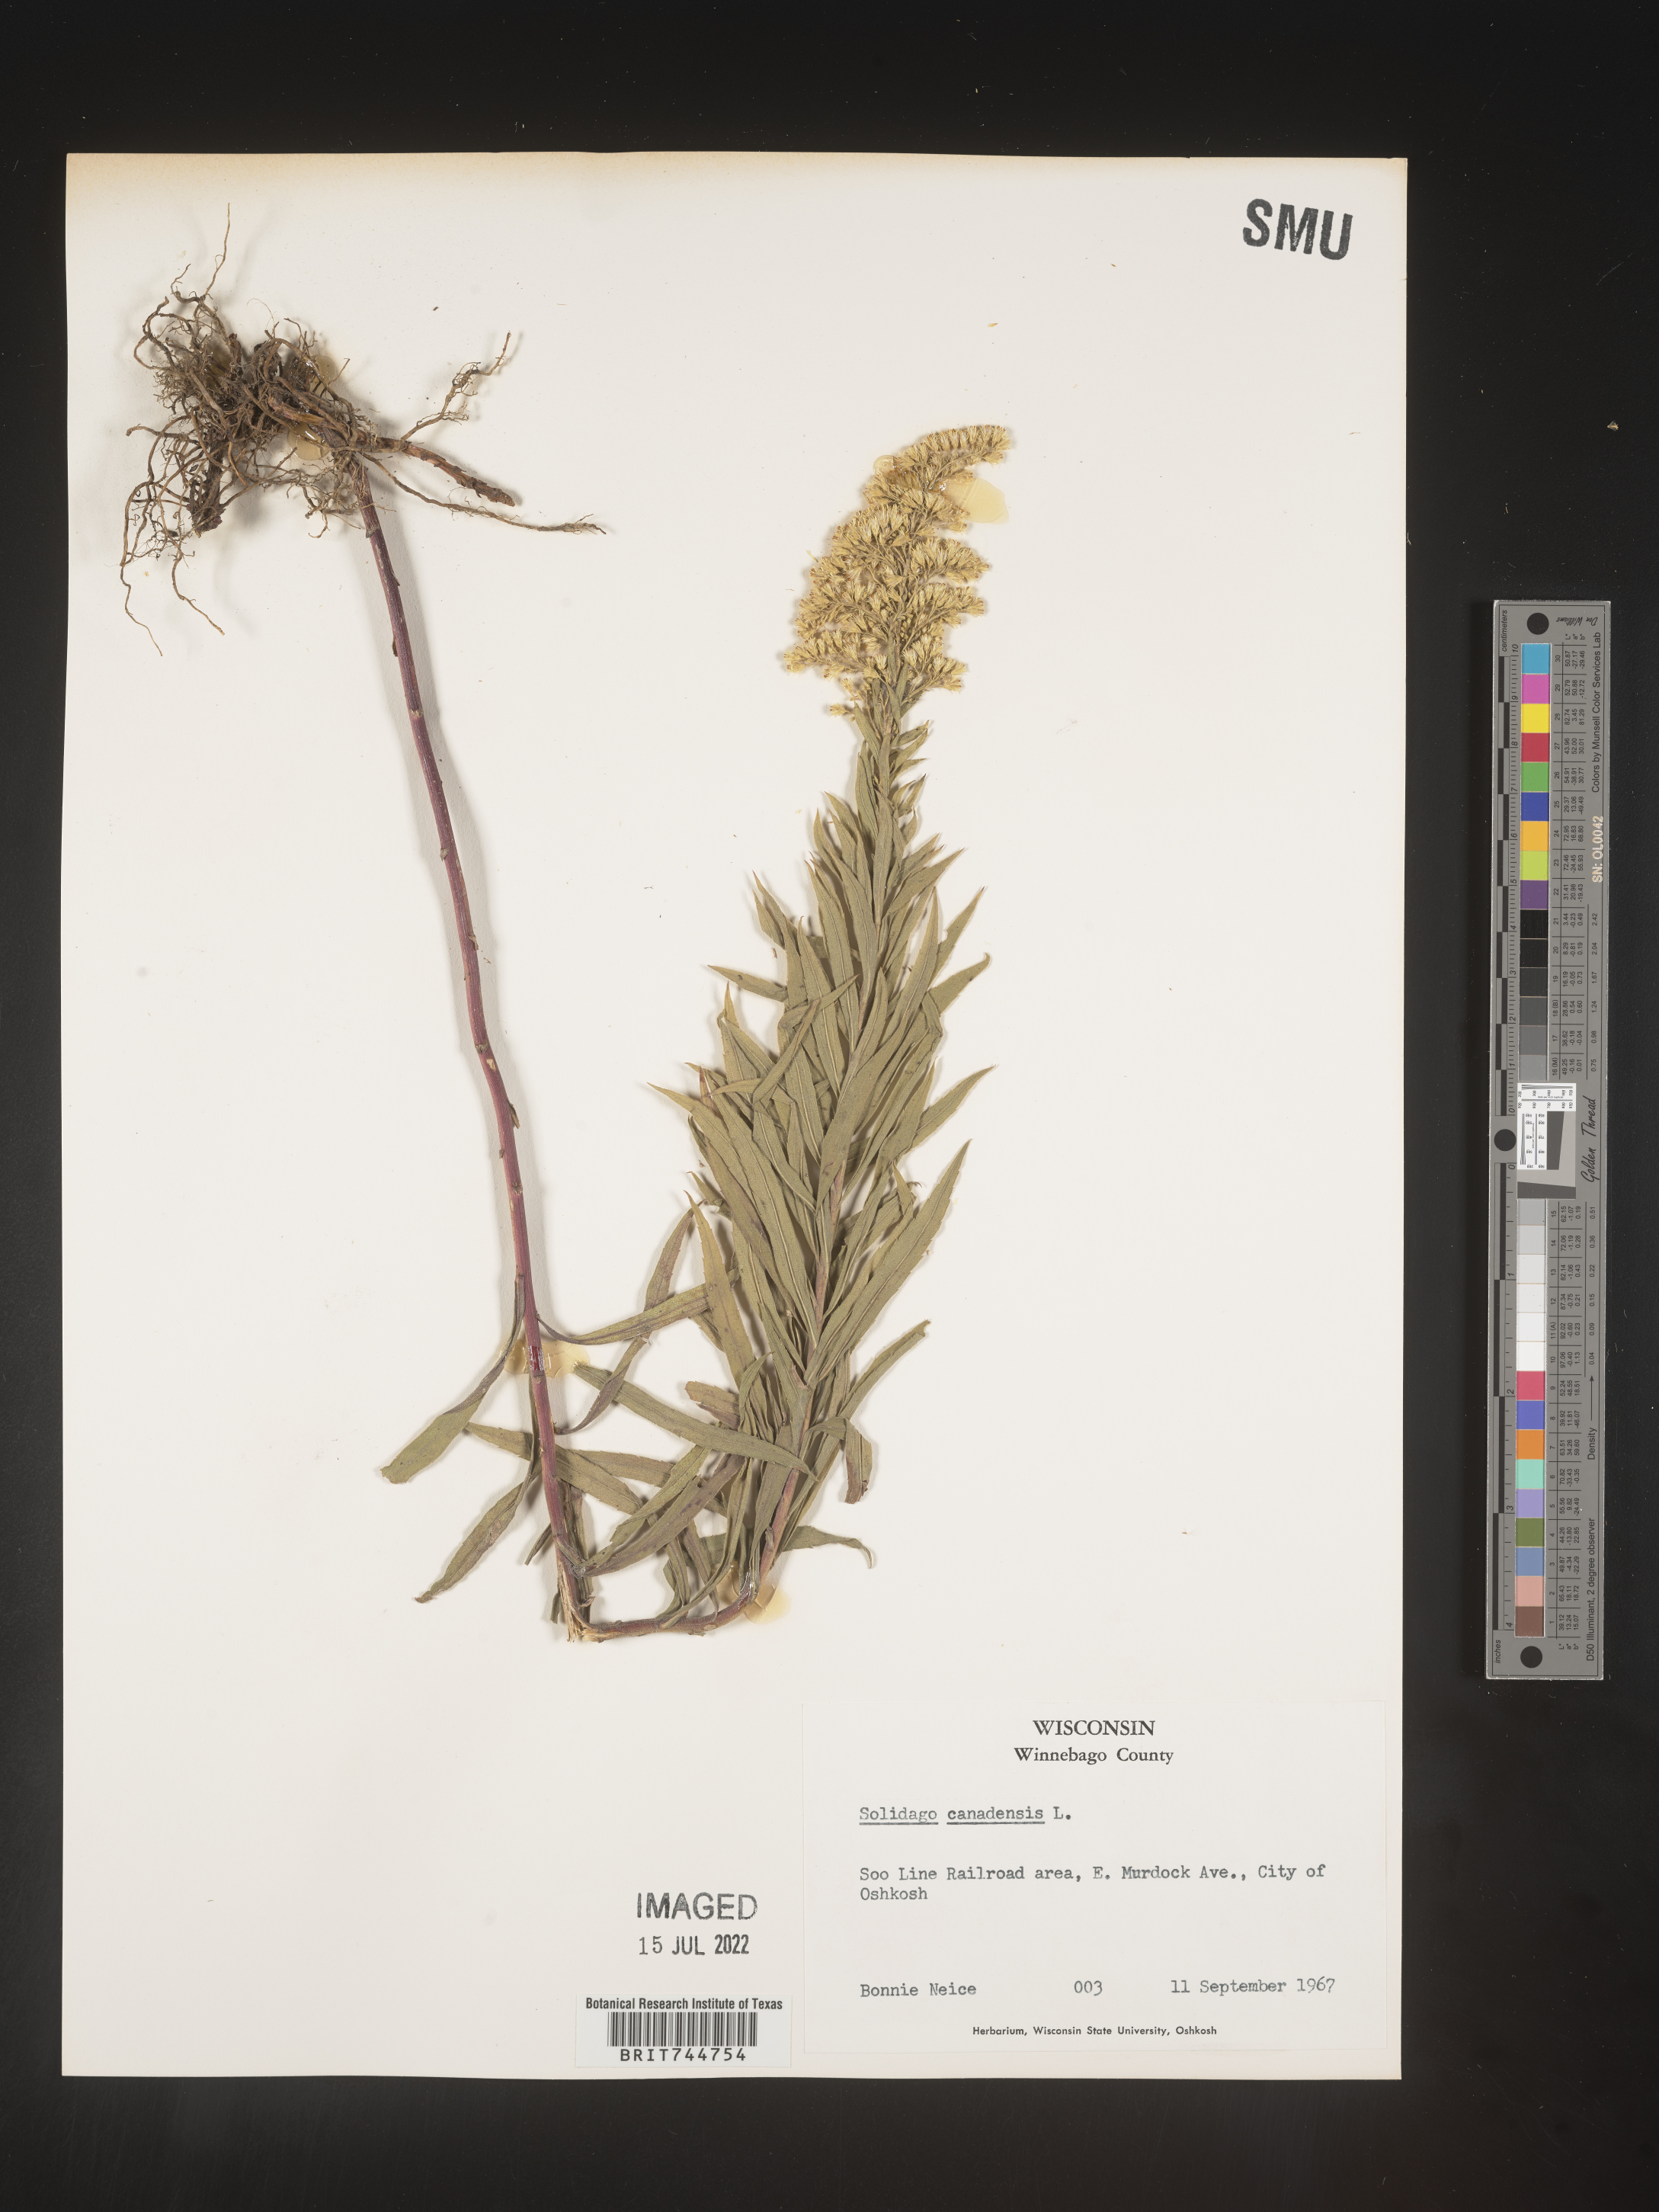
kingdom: Plantae
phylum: Tracheophyta
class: Magnoliopsida
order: Asterales
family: Asteraceae
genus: Solidago
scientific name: Solidago canadensis
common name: Canada goldenrod
